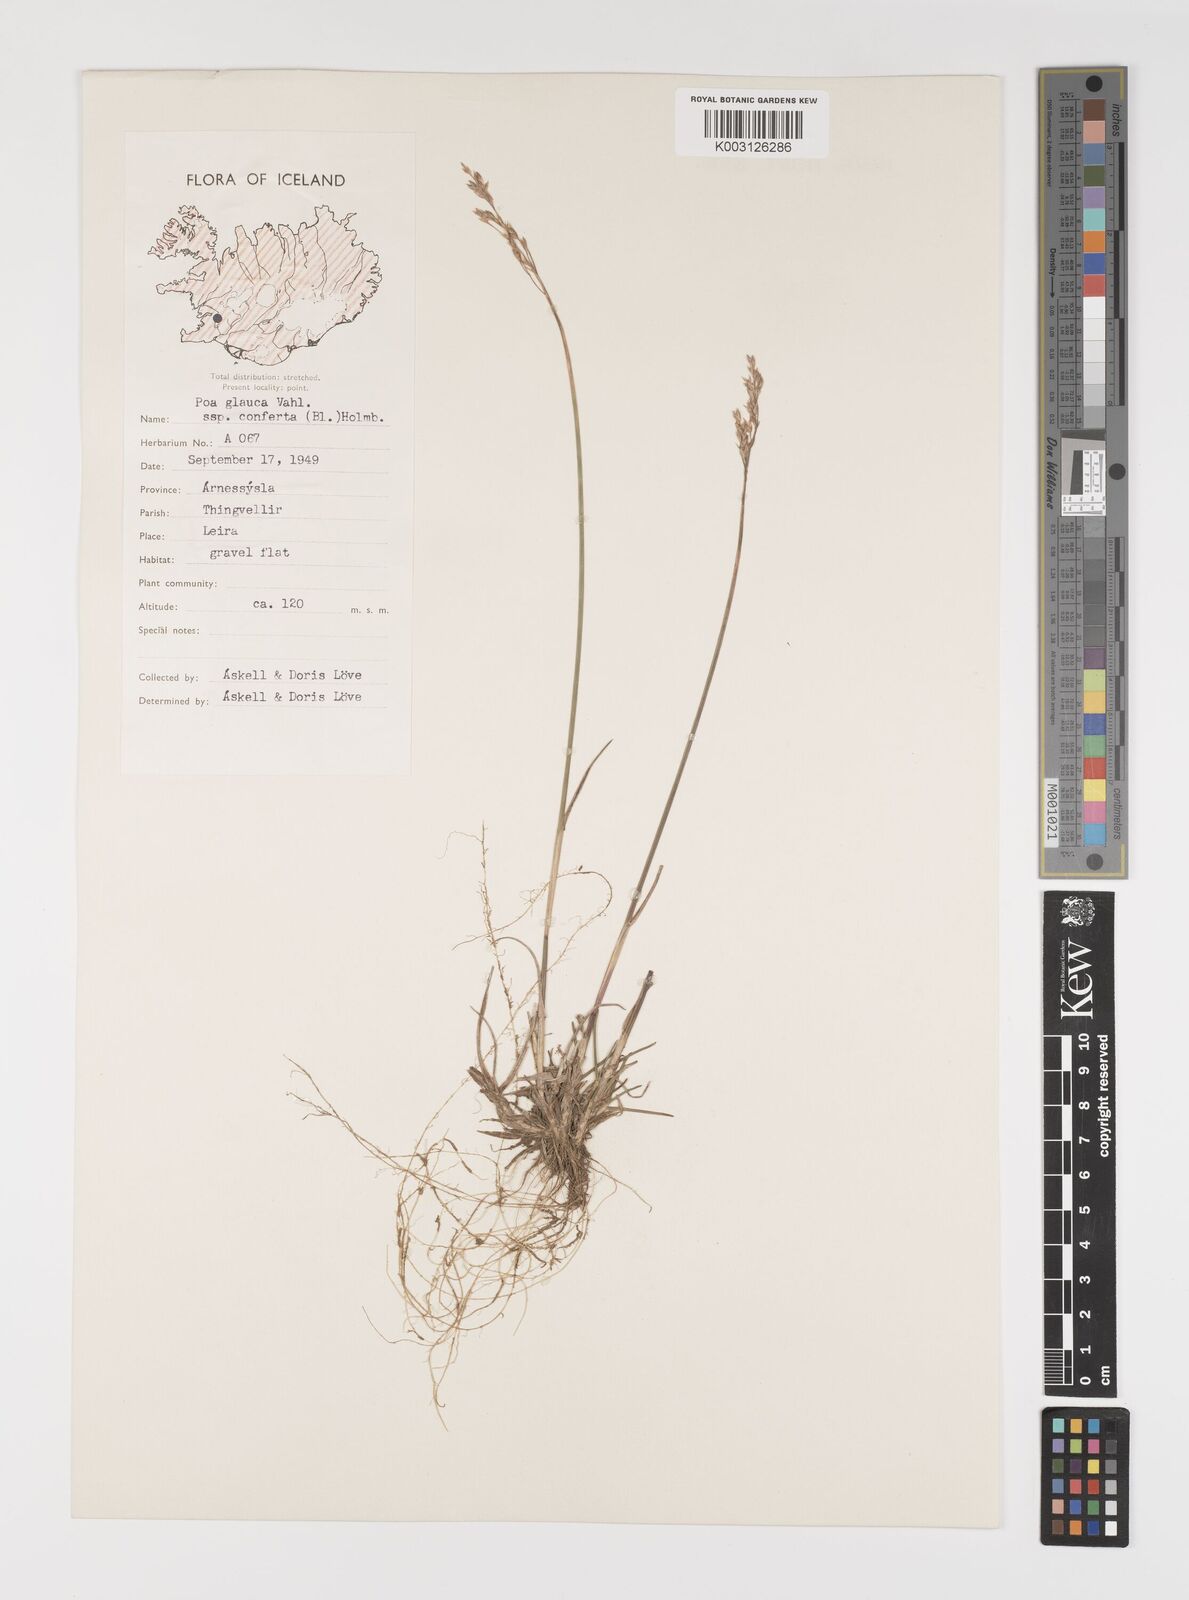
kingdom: Plantae
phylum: Tracheophyta
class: Liliopsida
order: Poales
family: Poaceae
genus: Poa
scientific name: Poa glauca
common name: Glaucous bluegrass
